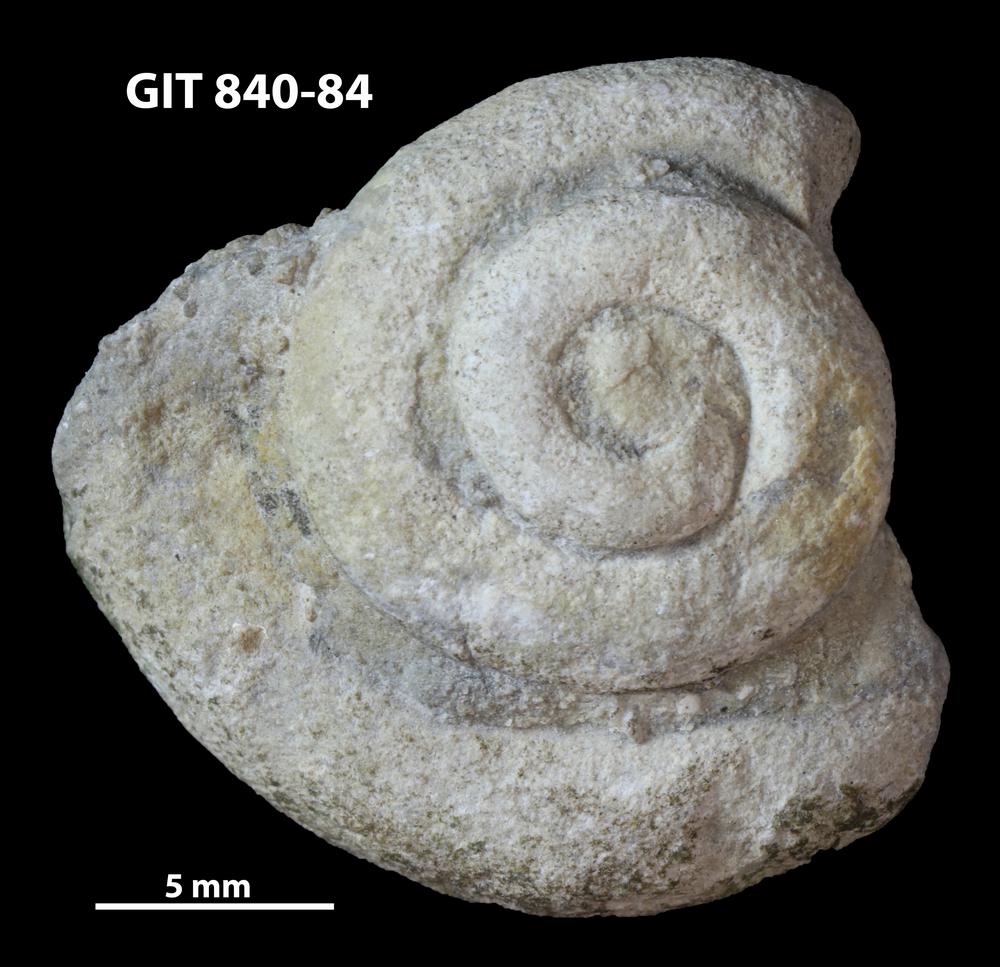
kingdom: Animalia
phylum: Mollusca
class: Gastropoda
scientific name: Gastropoda
